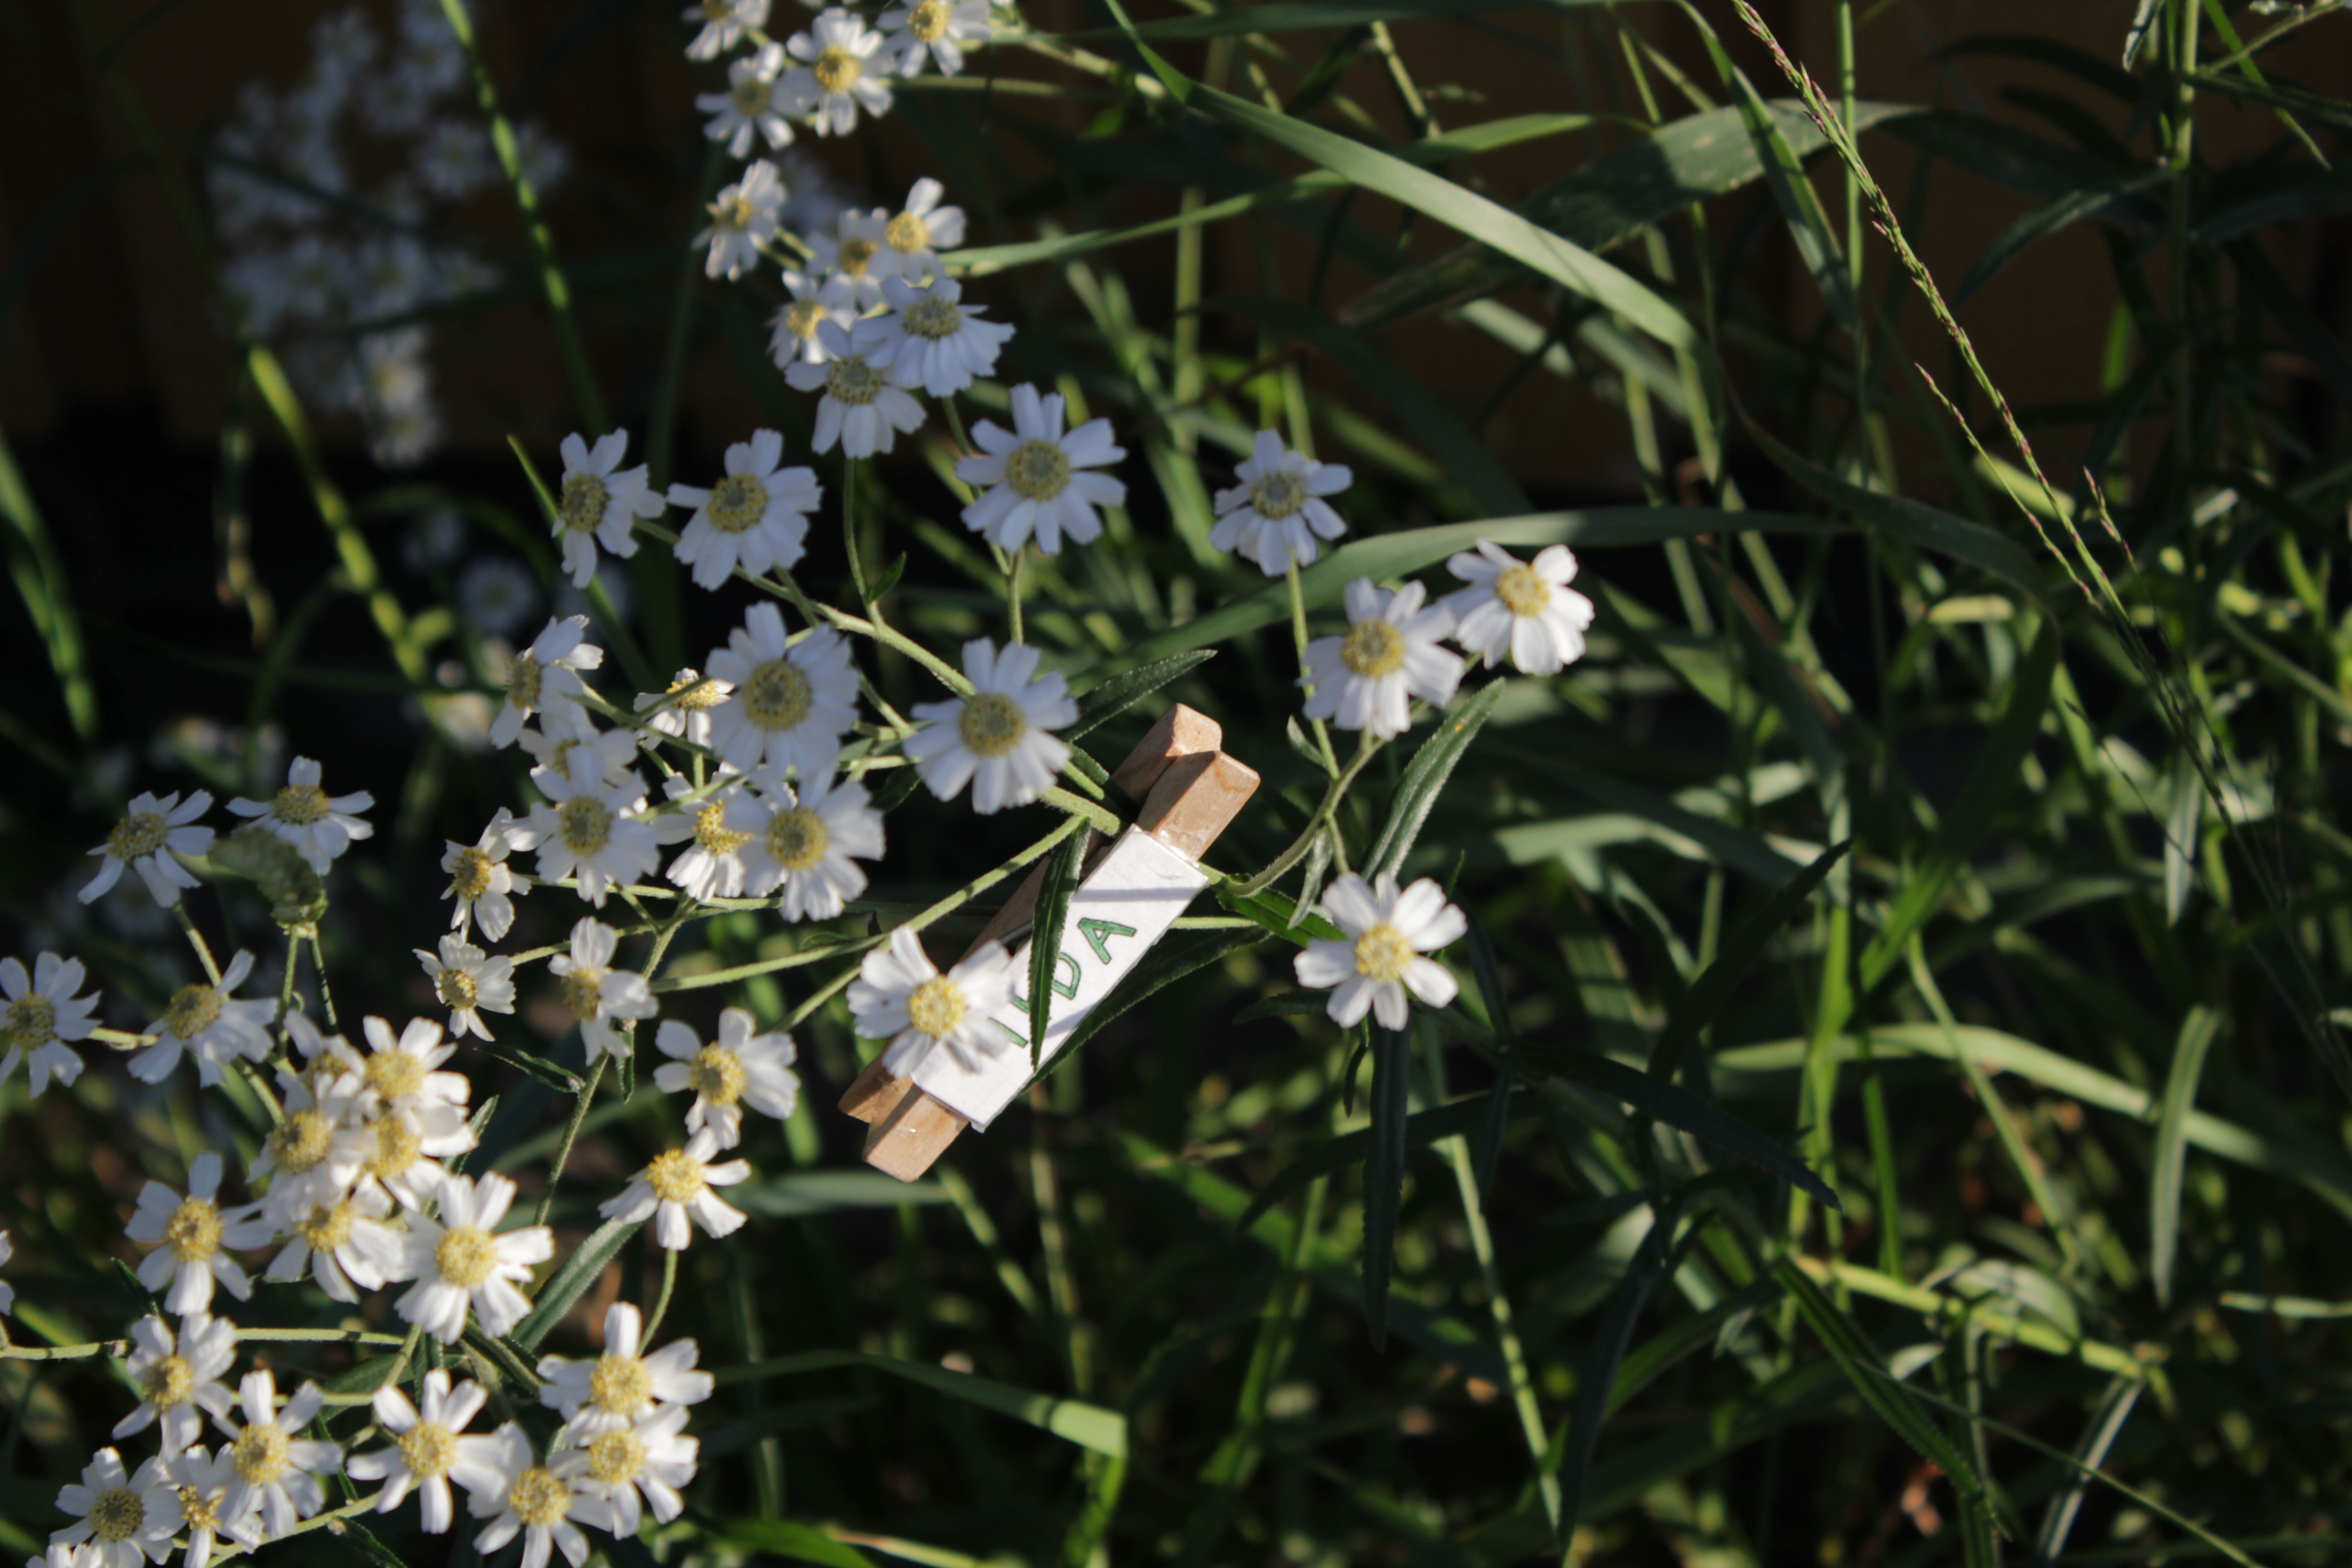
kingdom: Plantae
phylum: Tracheophyta
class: Magnoliopsida
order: Asterales
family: Asteraceae
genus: Achillea
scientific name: Achillea ptarmica
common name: Sneezeweed
